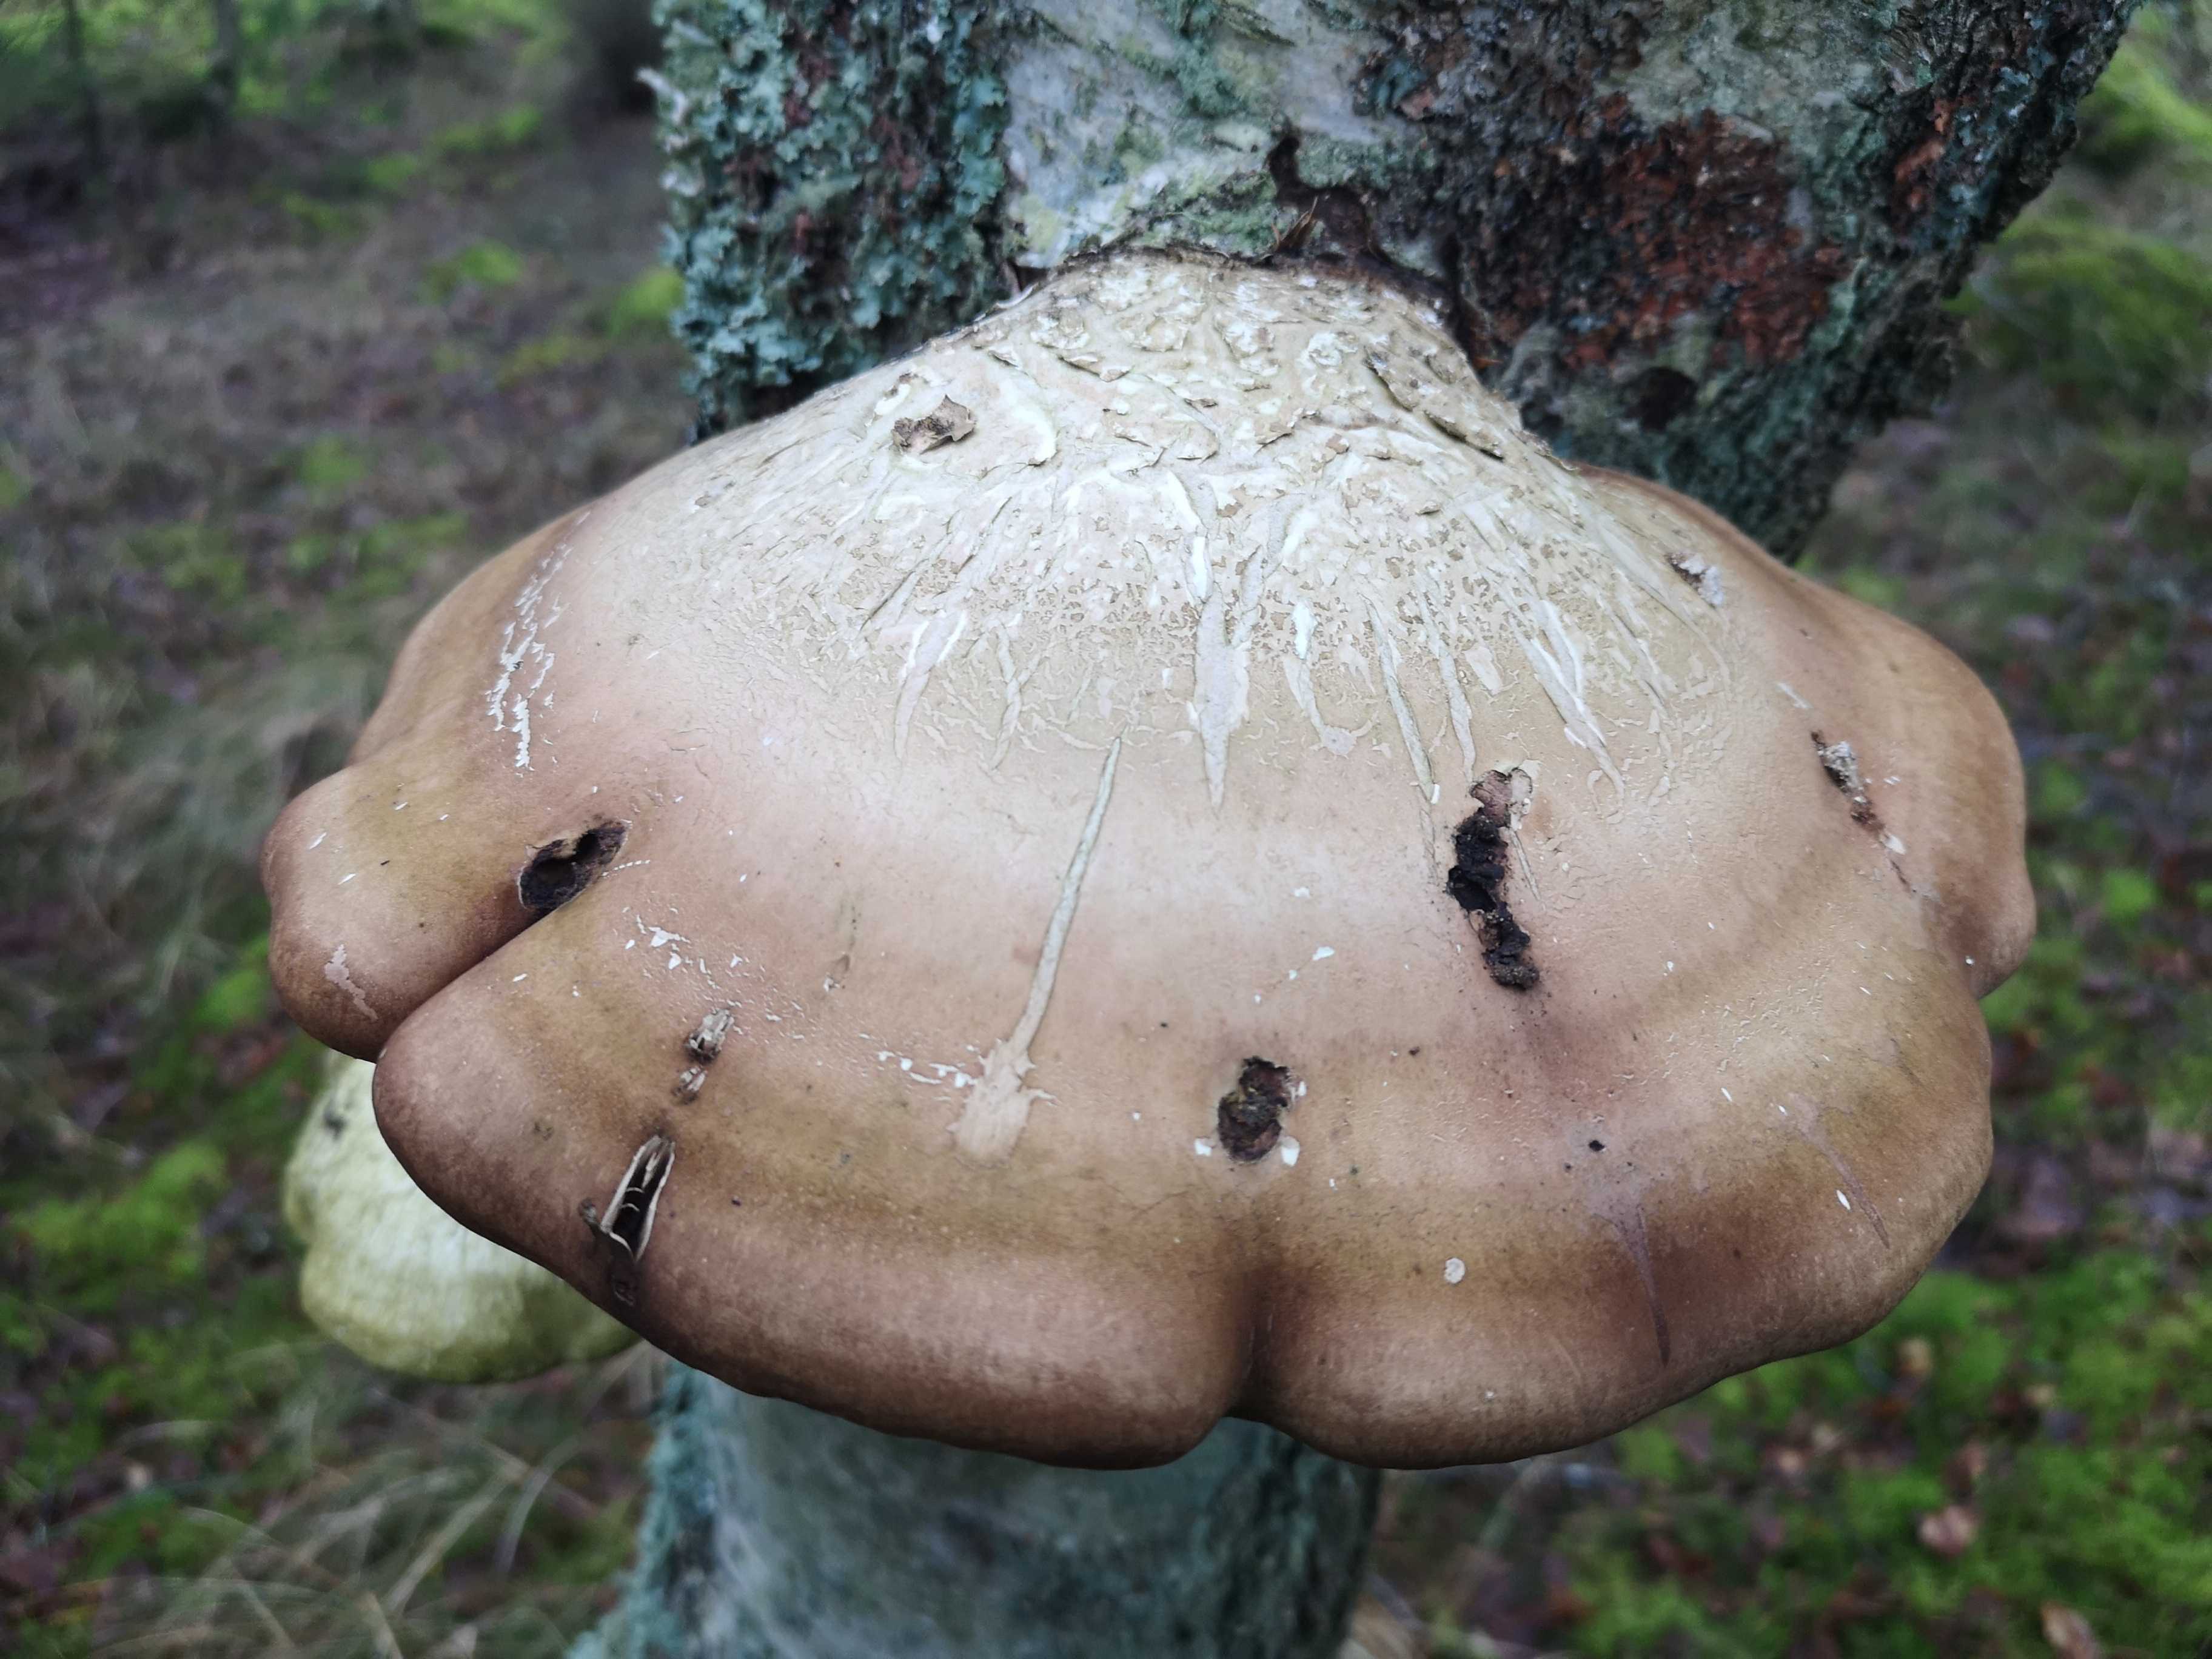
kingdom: Fungi
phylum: Basidiomycota
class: Agaricomycetes
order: Polyporales
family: Fomitopsidaceae
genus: Fomitopsis
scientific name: Fomitopsis betulina
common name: birkeporesvamp
